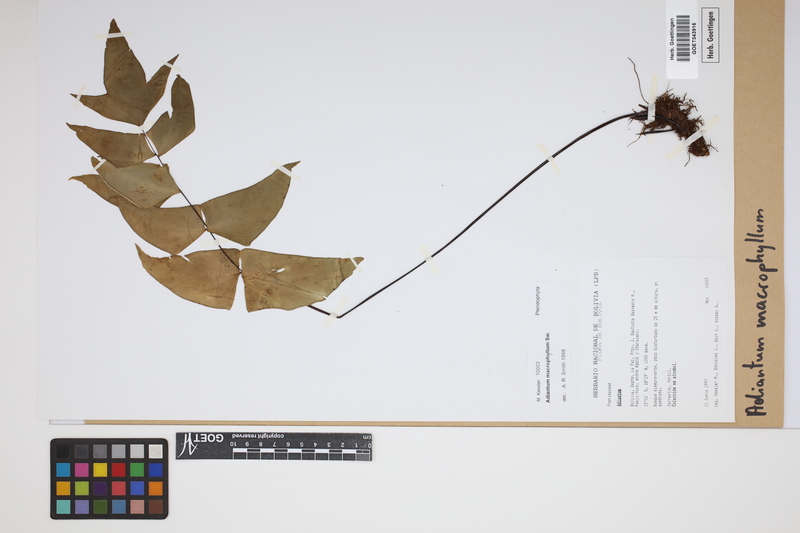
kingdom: Plantae
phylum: Tracheophyta
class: Polypodiopsida
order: Polypodiales
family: Pteridaceae
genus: Adiantum
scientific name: Adiantum macrophyllum
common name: Largeleaf maidenhair
